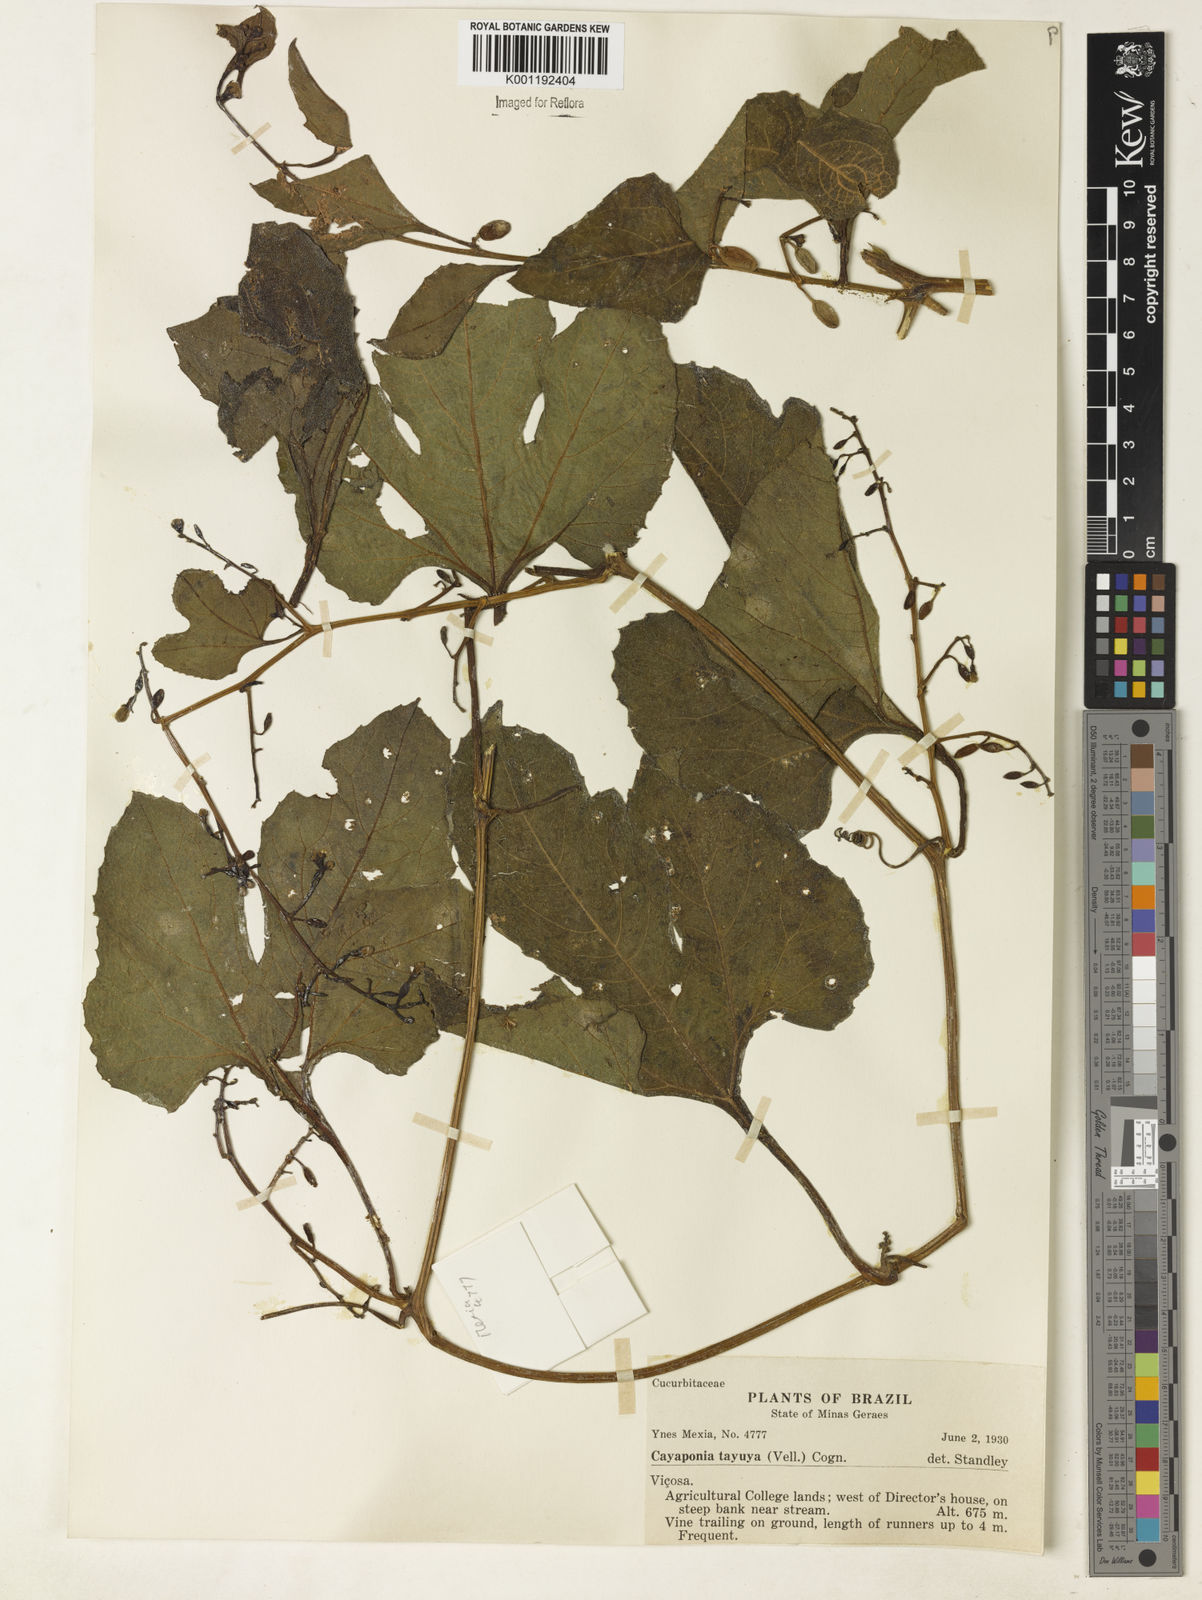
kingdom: Plantae
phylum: Tracheophyta
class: Magnoliopsida
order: Cucurbitales
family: Cucurbitaceae
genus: Cayaponia
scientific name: Cayaponia tayuya
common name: Tayuya
